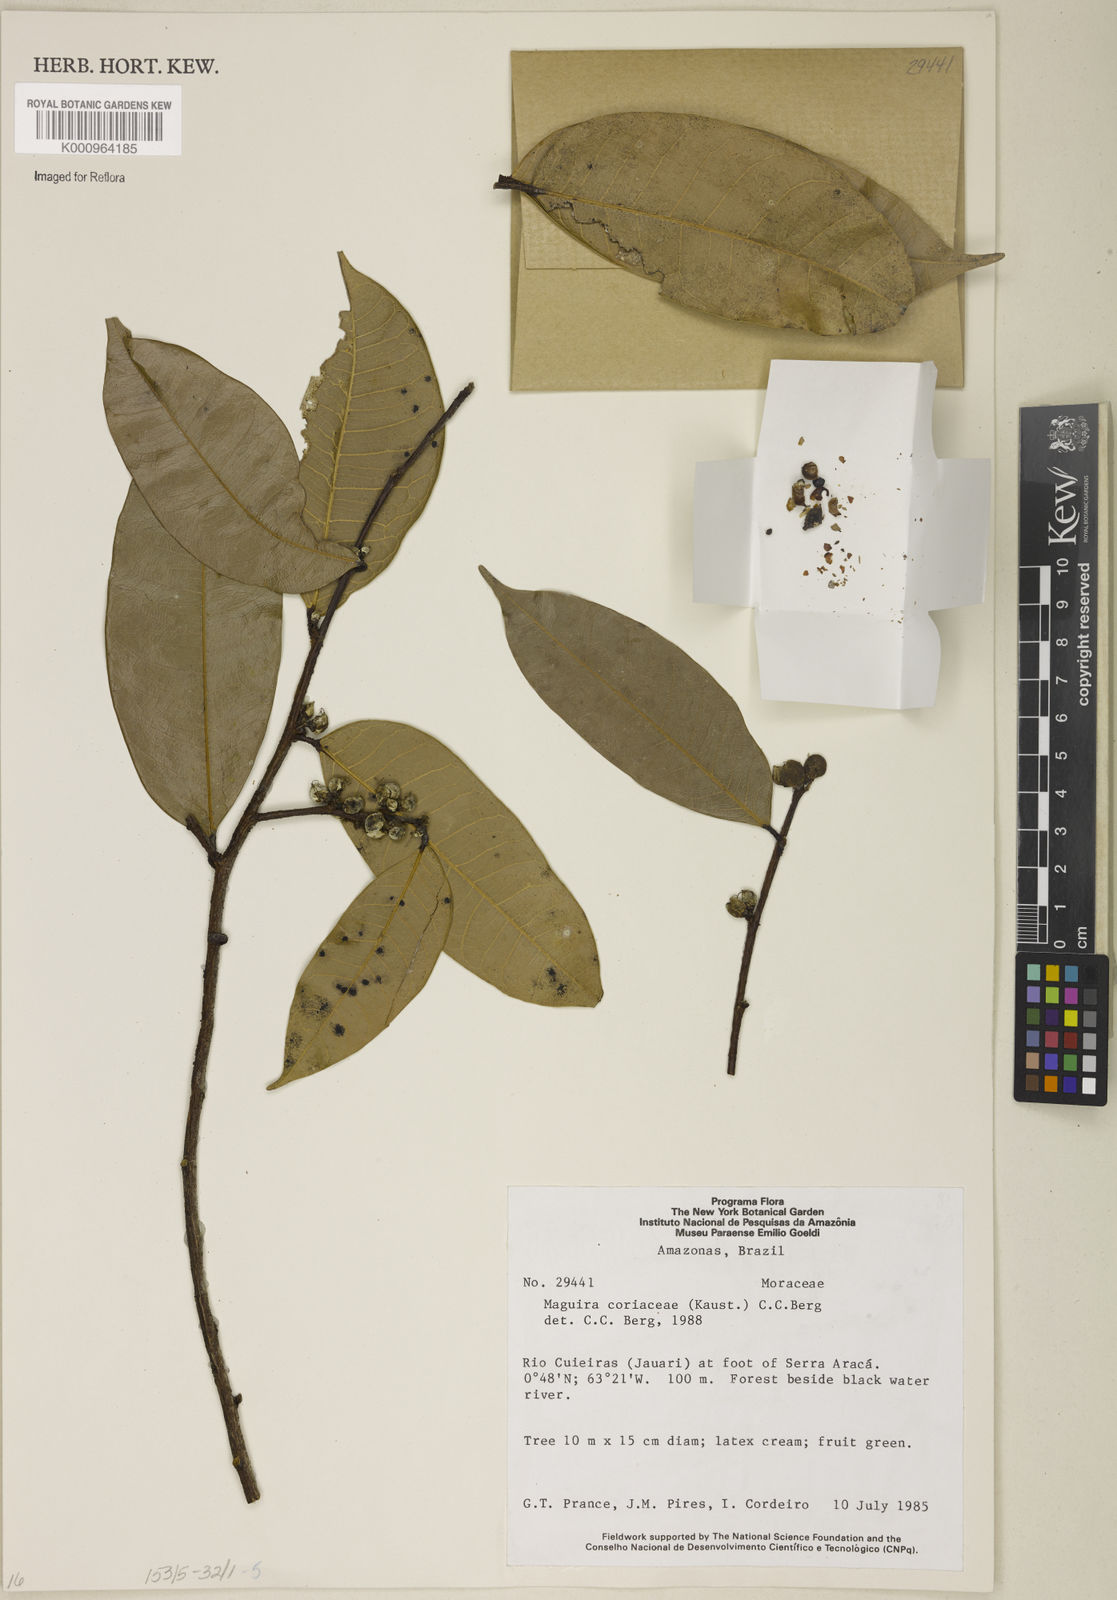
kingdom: Plantae
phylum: Tracheophyta
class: Magnoliopsida
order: Rosales
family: Moraceae
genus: Maquira
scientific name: Maquira coriacea
